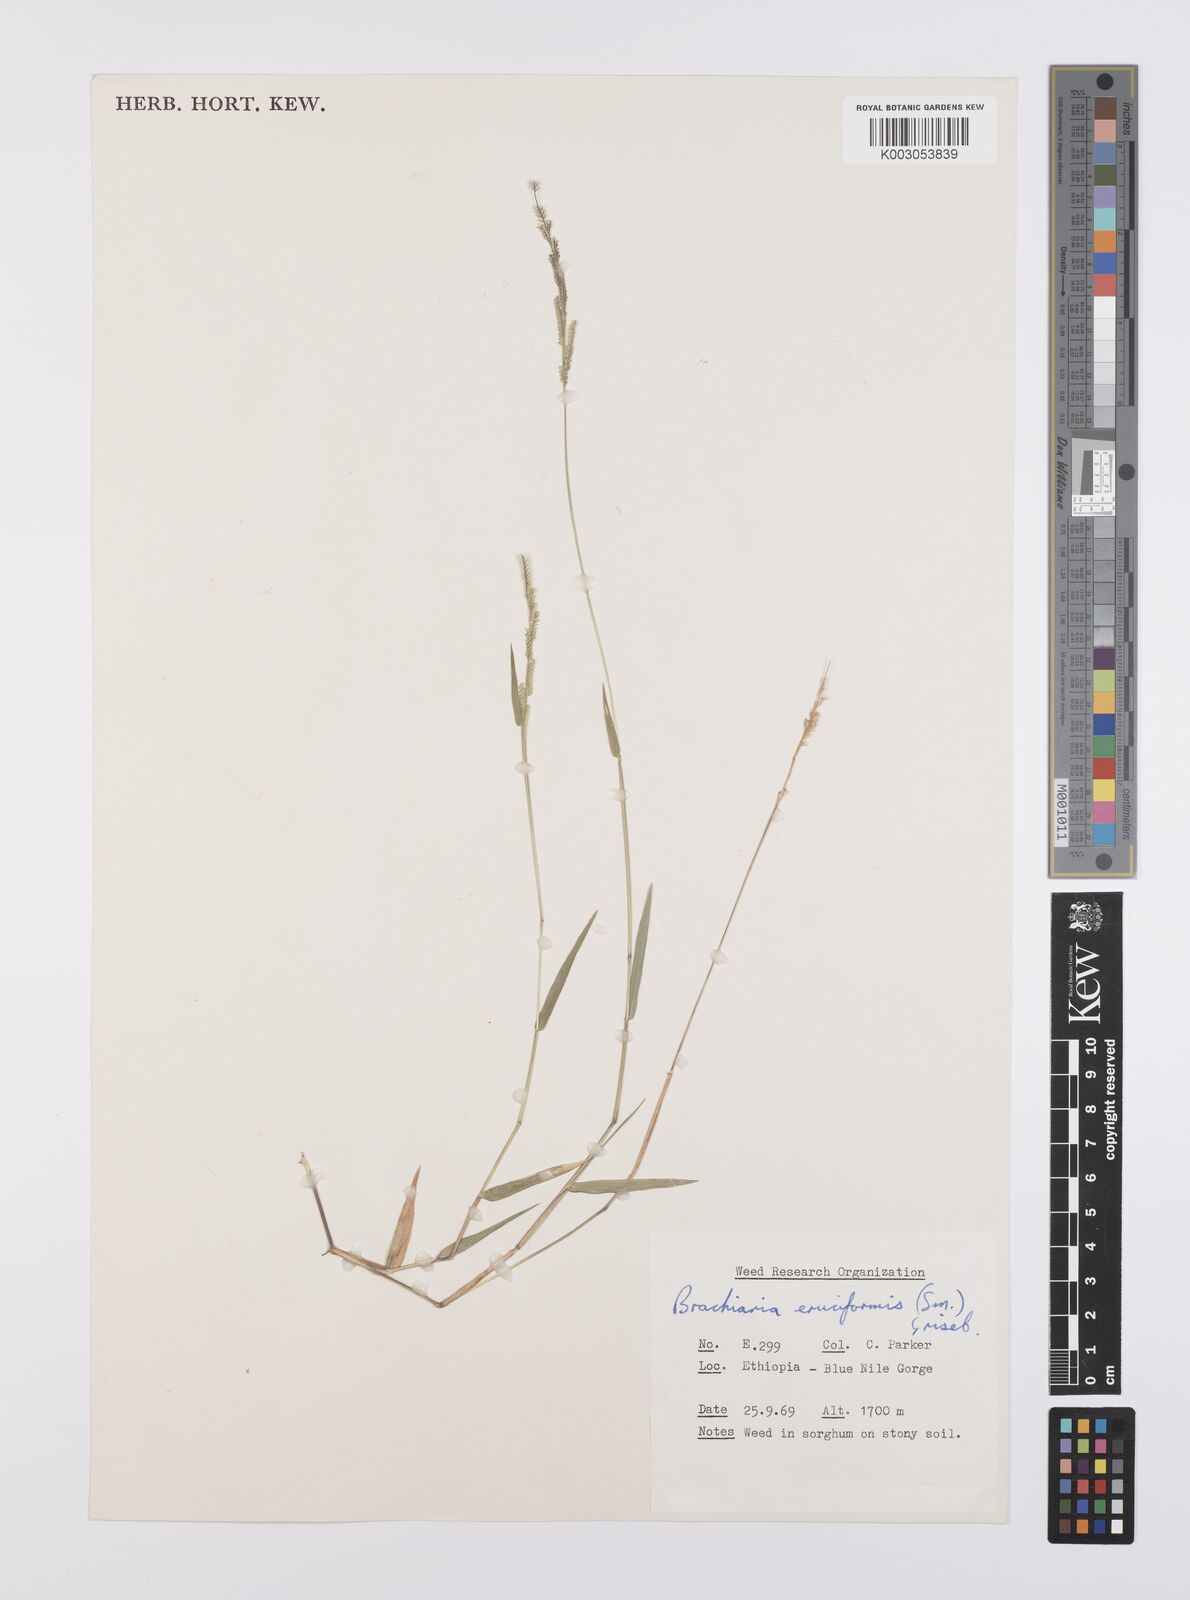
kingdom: Plantae
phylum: Tracheophyta
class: Liliopsida
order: Poales
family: Poaceae
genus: Moorochloa
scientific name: Moorochloa eruciformis
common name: Sweet signalgrass
